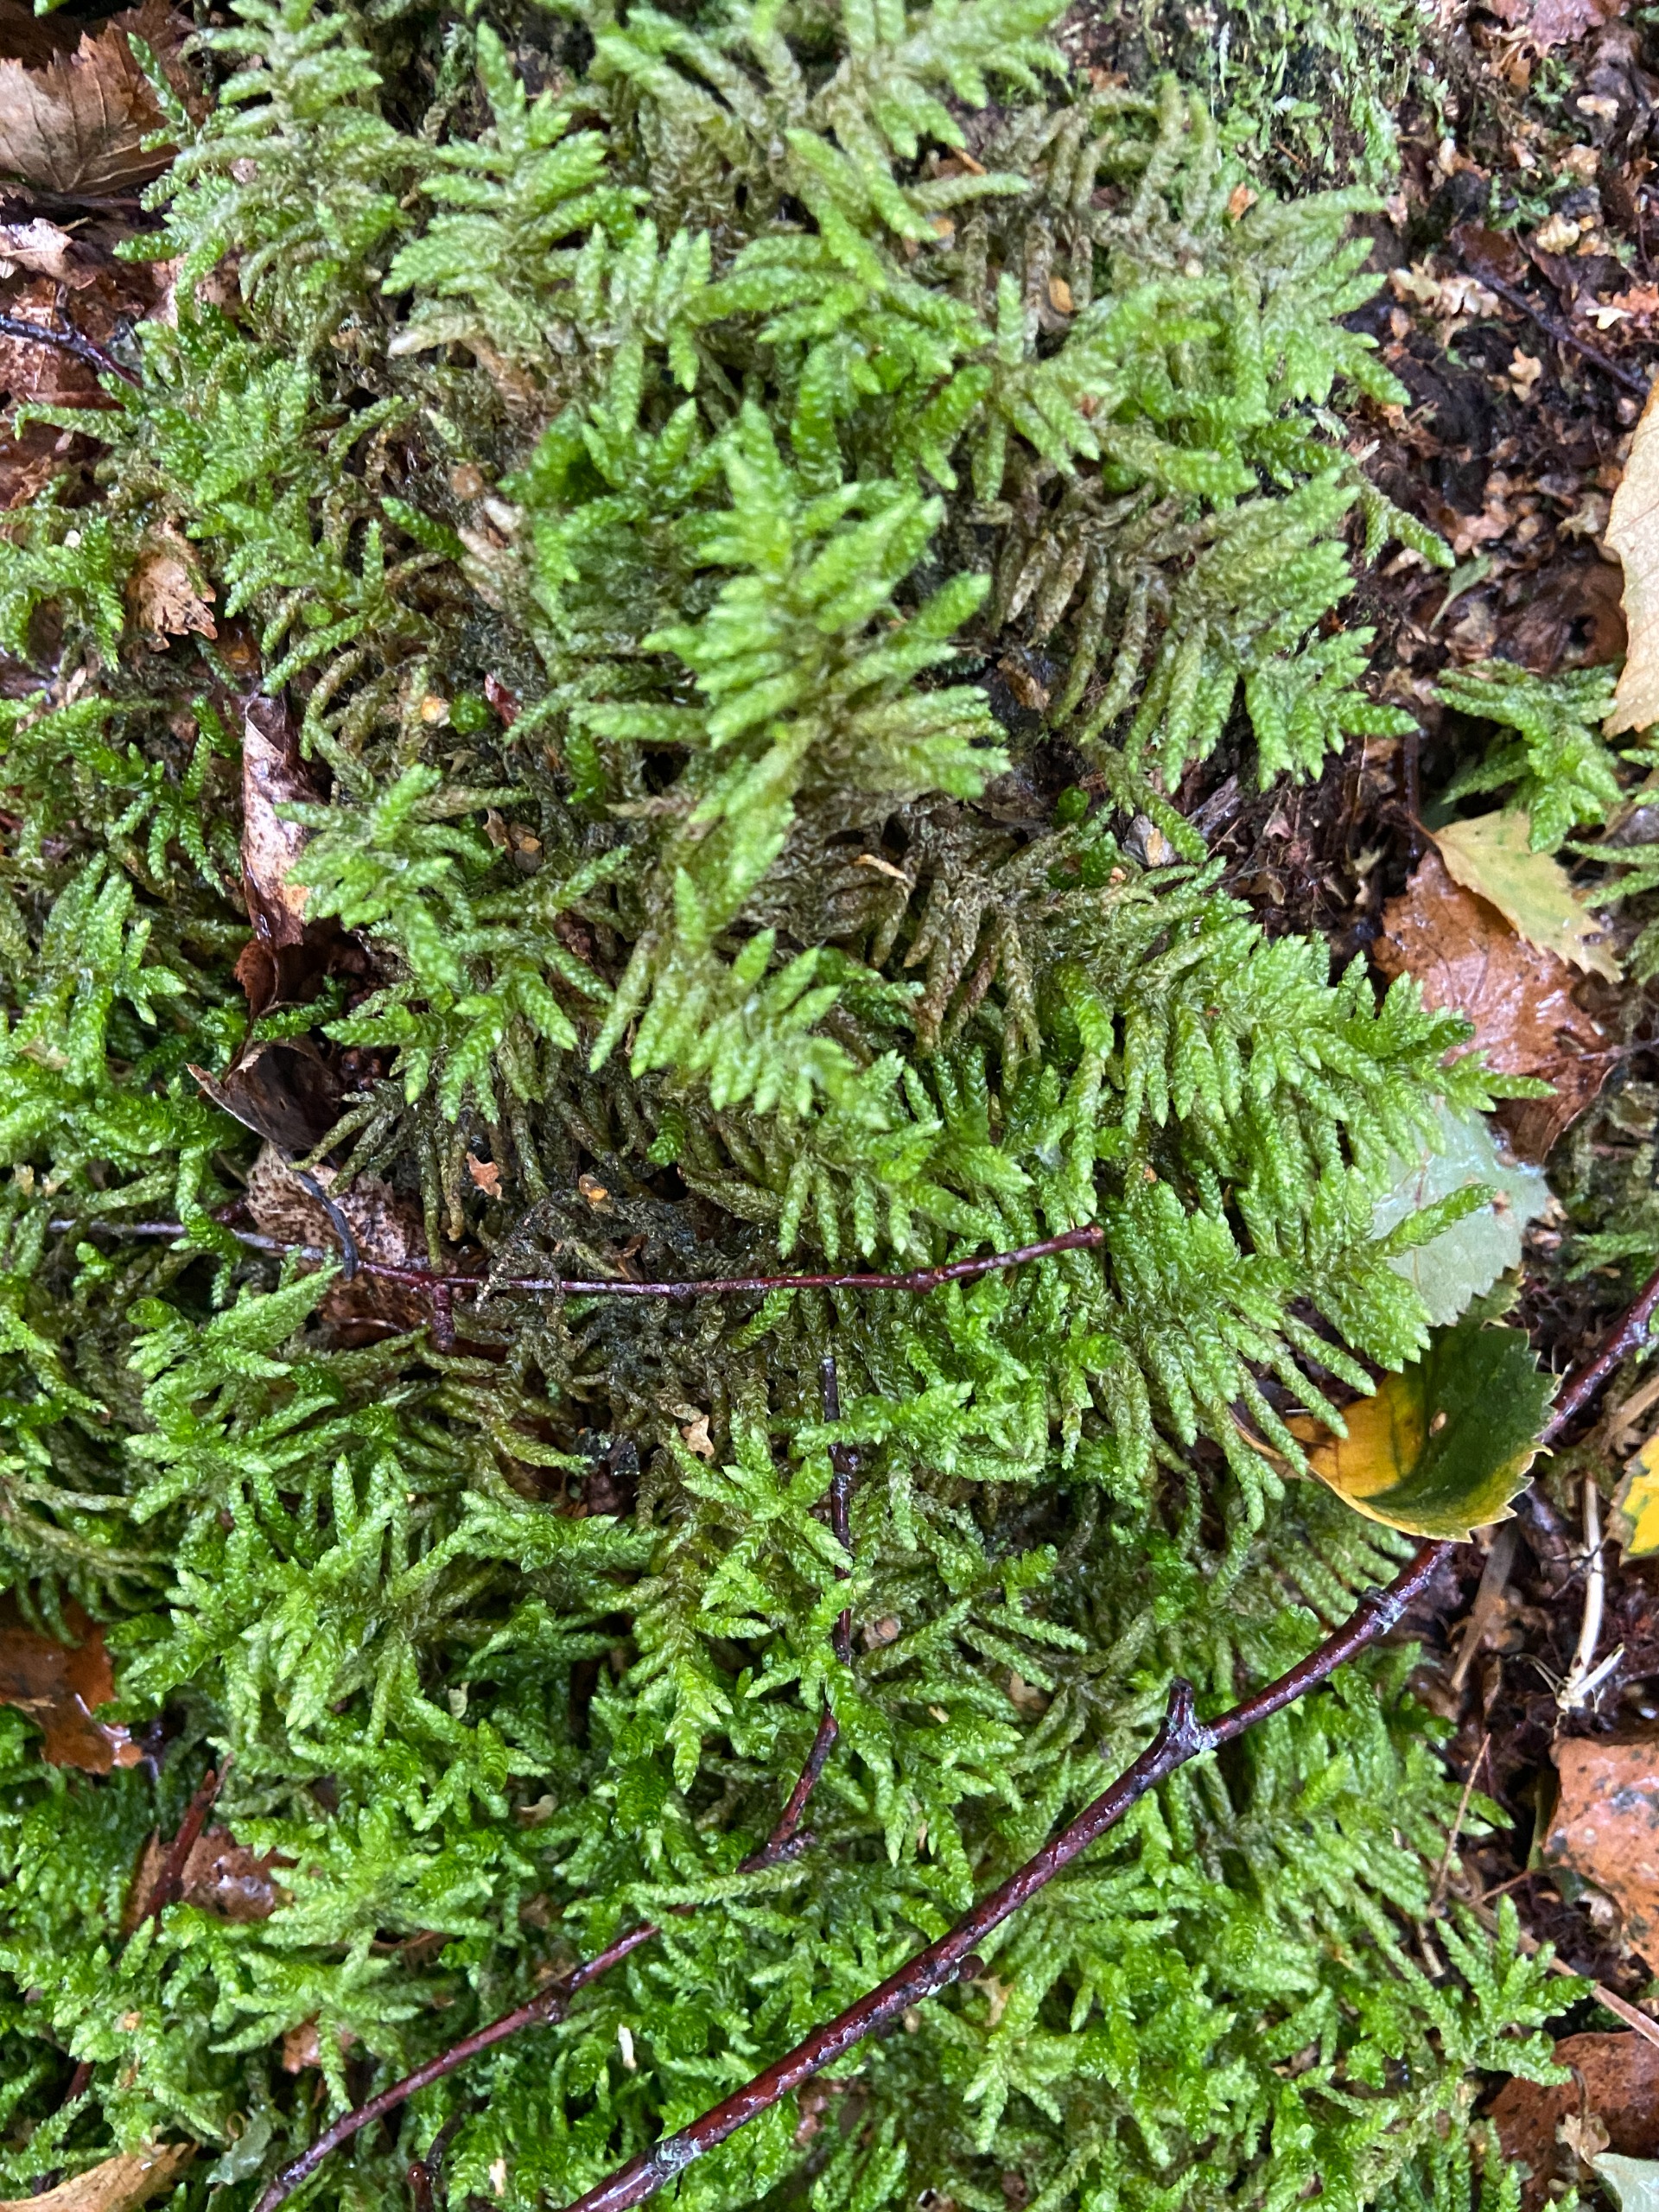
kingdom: Plantae
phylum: Bryophyta
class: Bryopsida
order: Hypnales
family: Brachytheciaceae
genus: Pseudoscleropodium
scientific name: Pseudoscleropodium purum
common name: Hulbladet fedtmos
